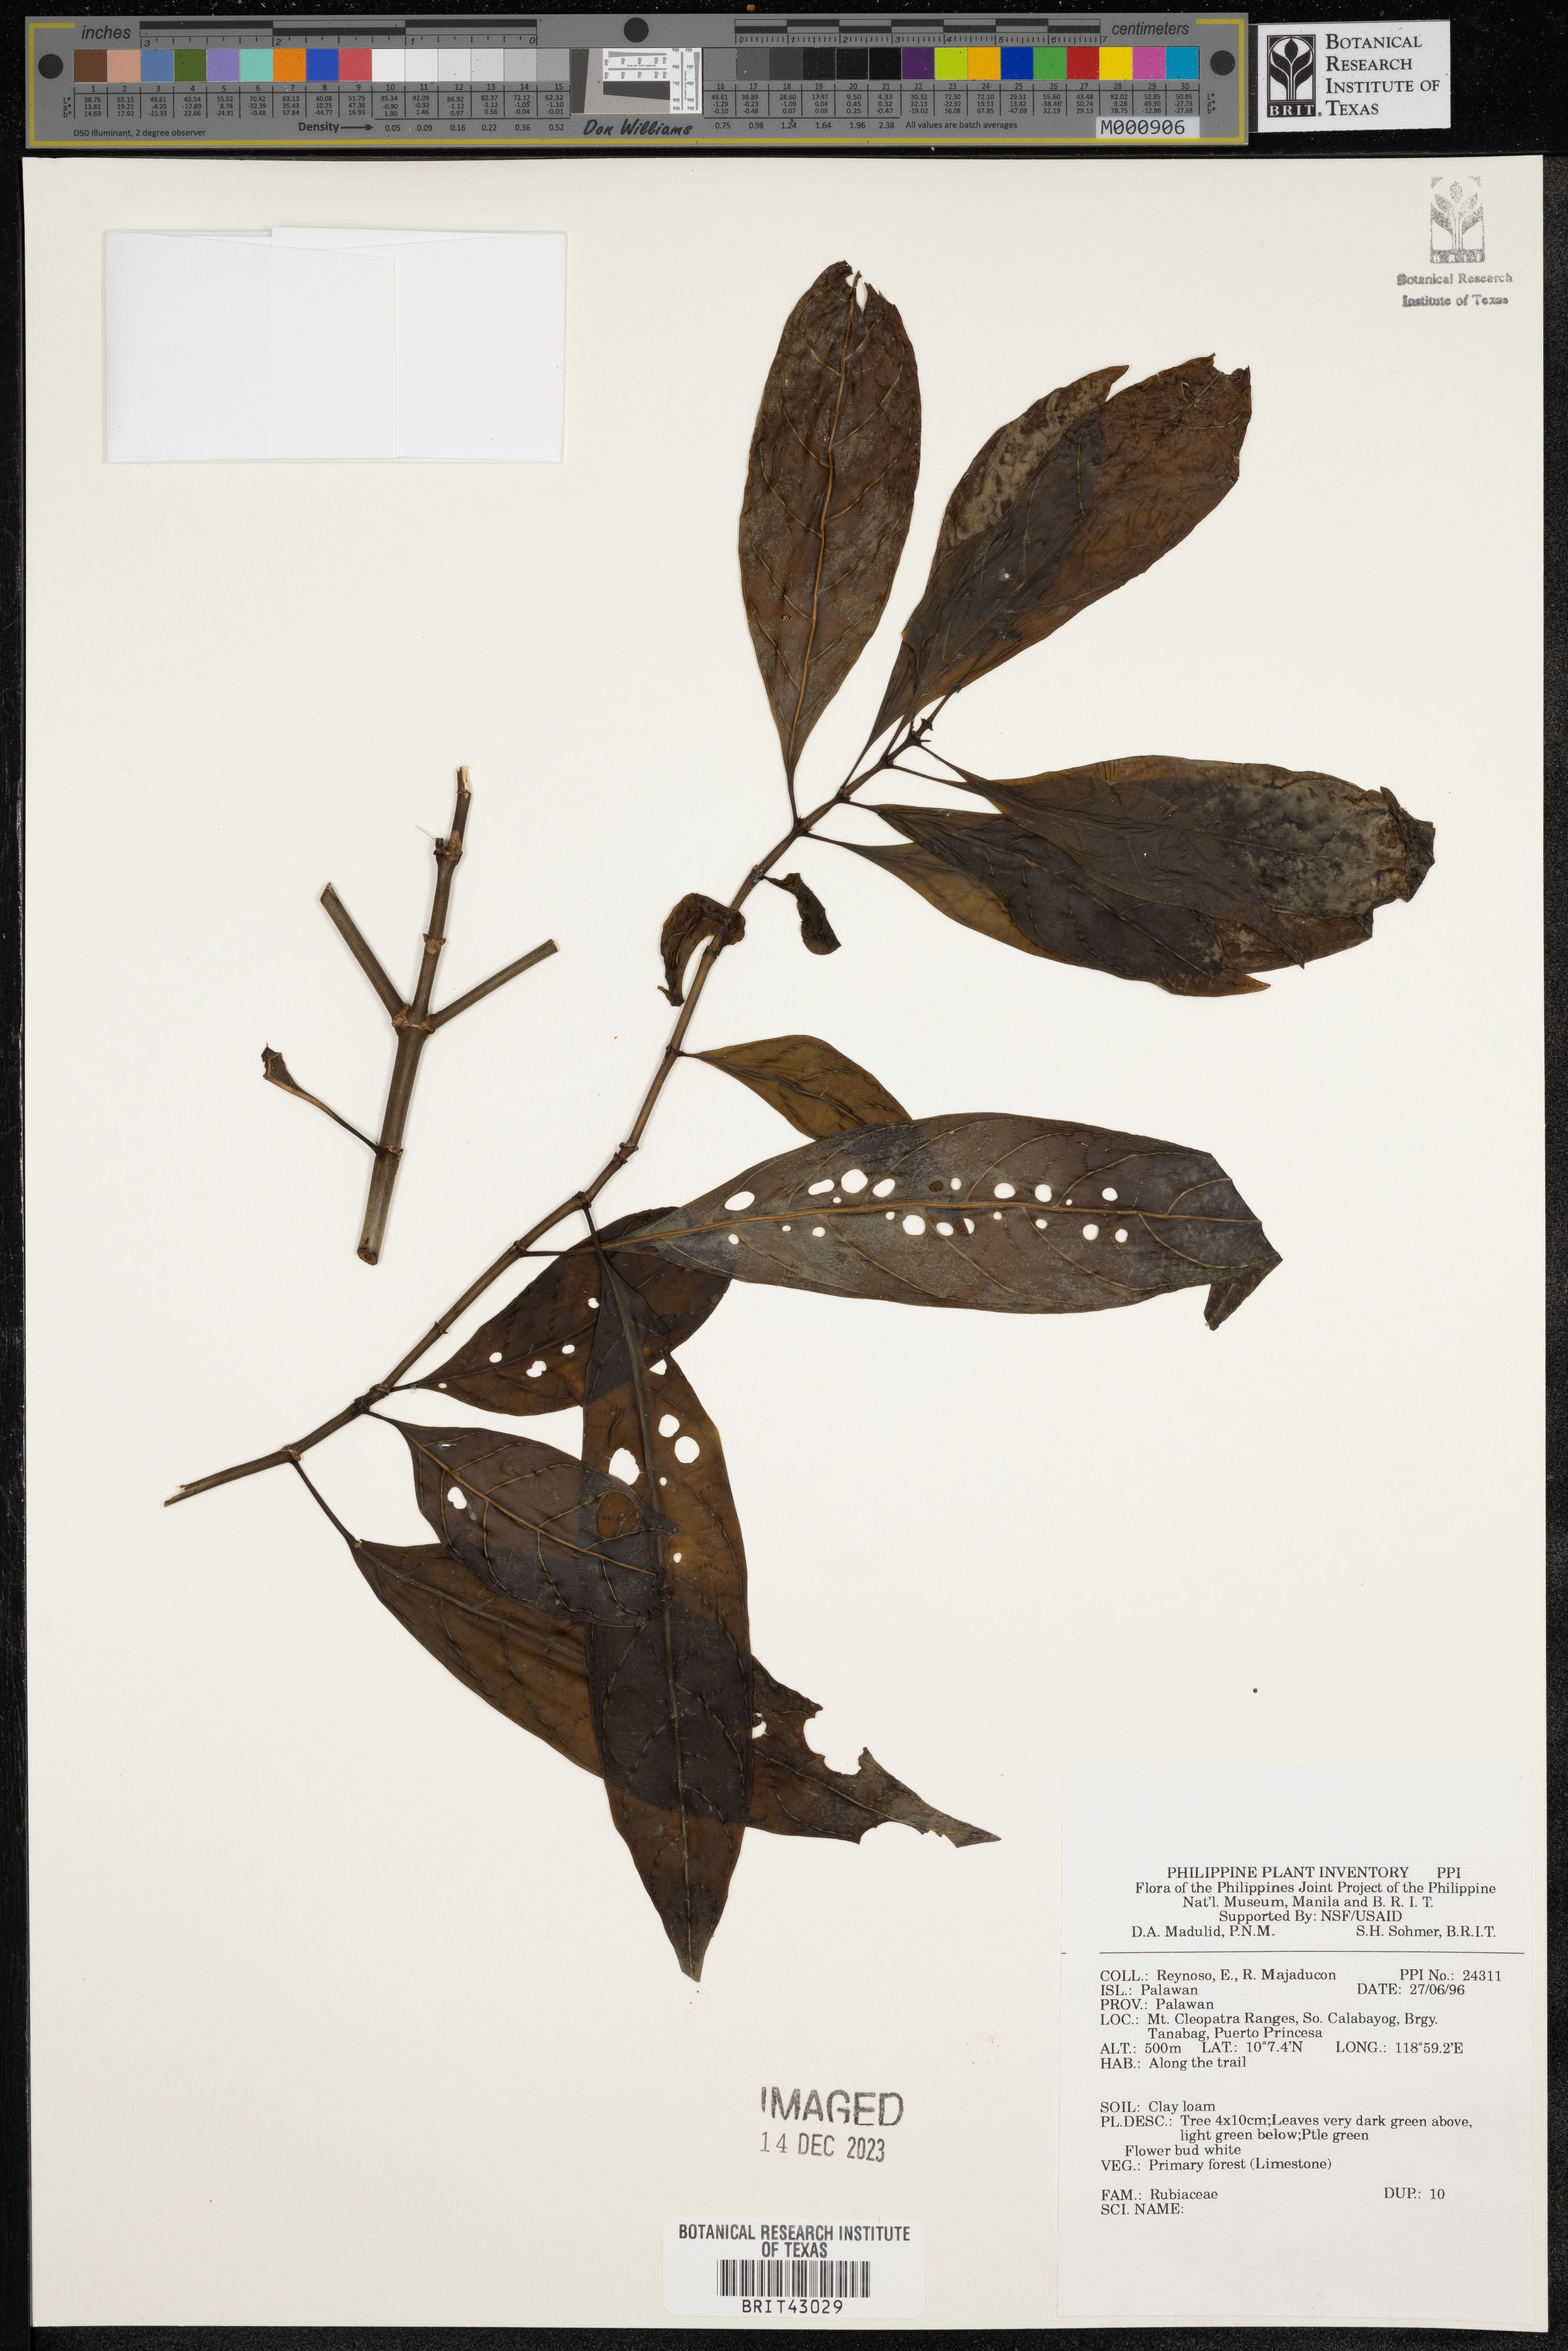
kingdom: Plantae
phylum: Tracheophyta
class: Magnoliopsida
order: Gentianales
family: Rubiaceae
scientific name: Rubiaceae
